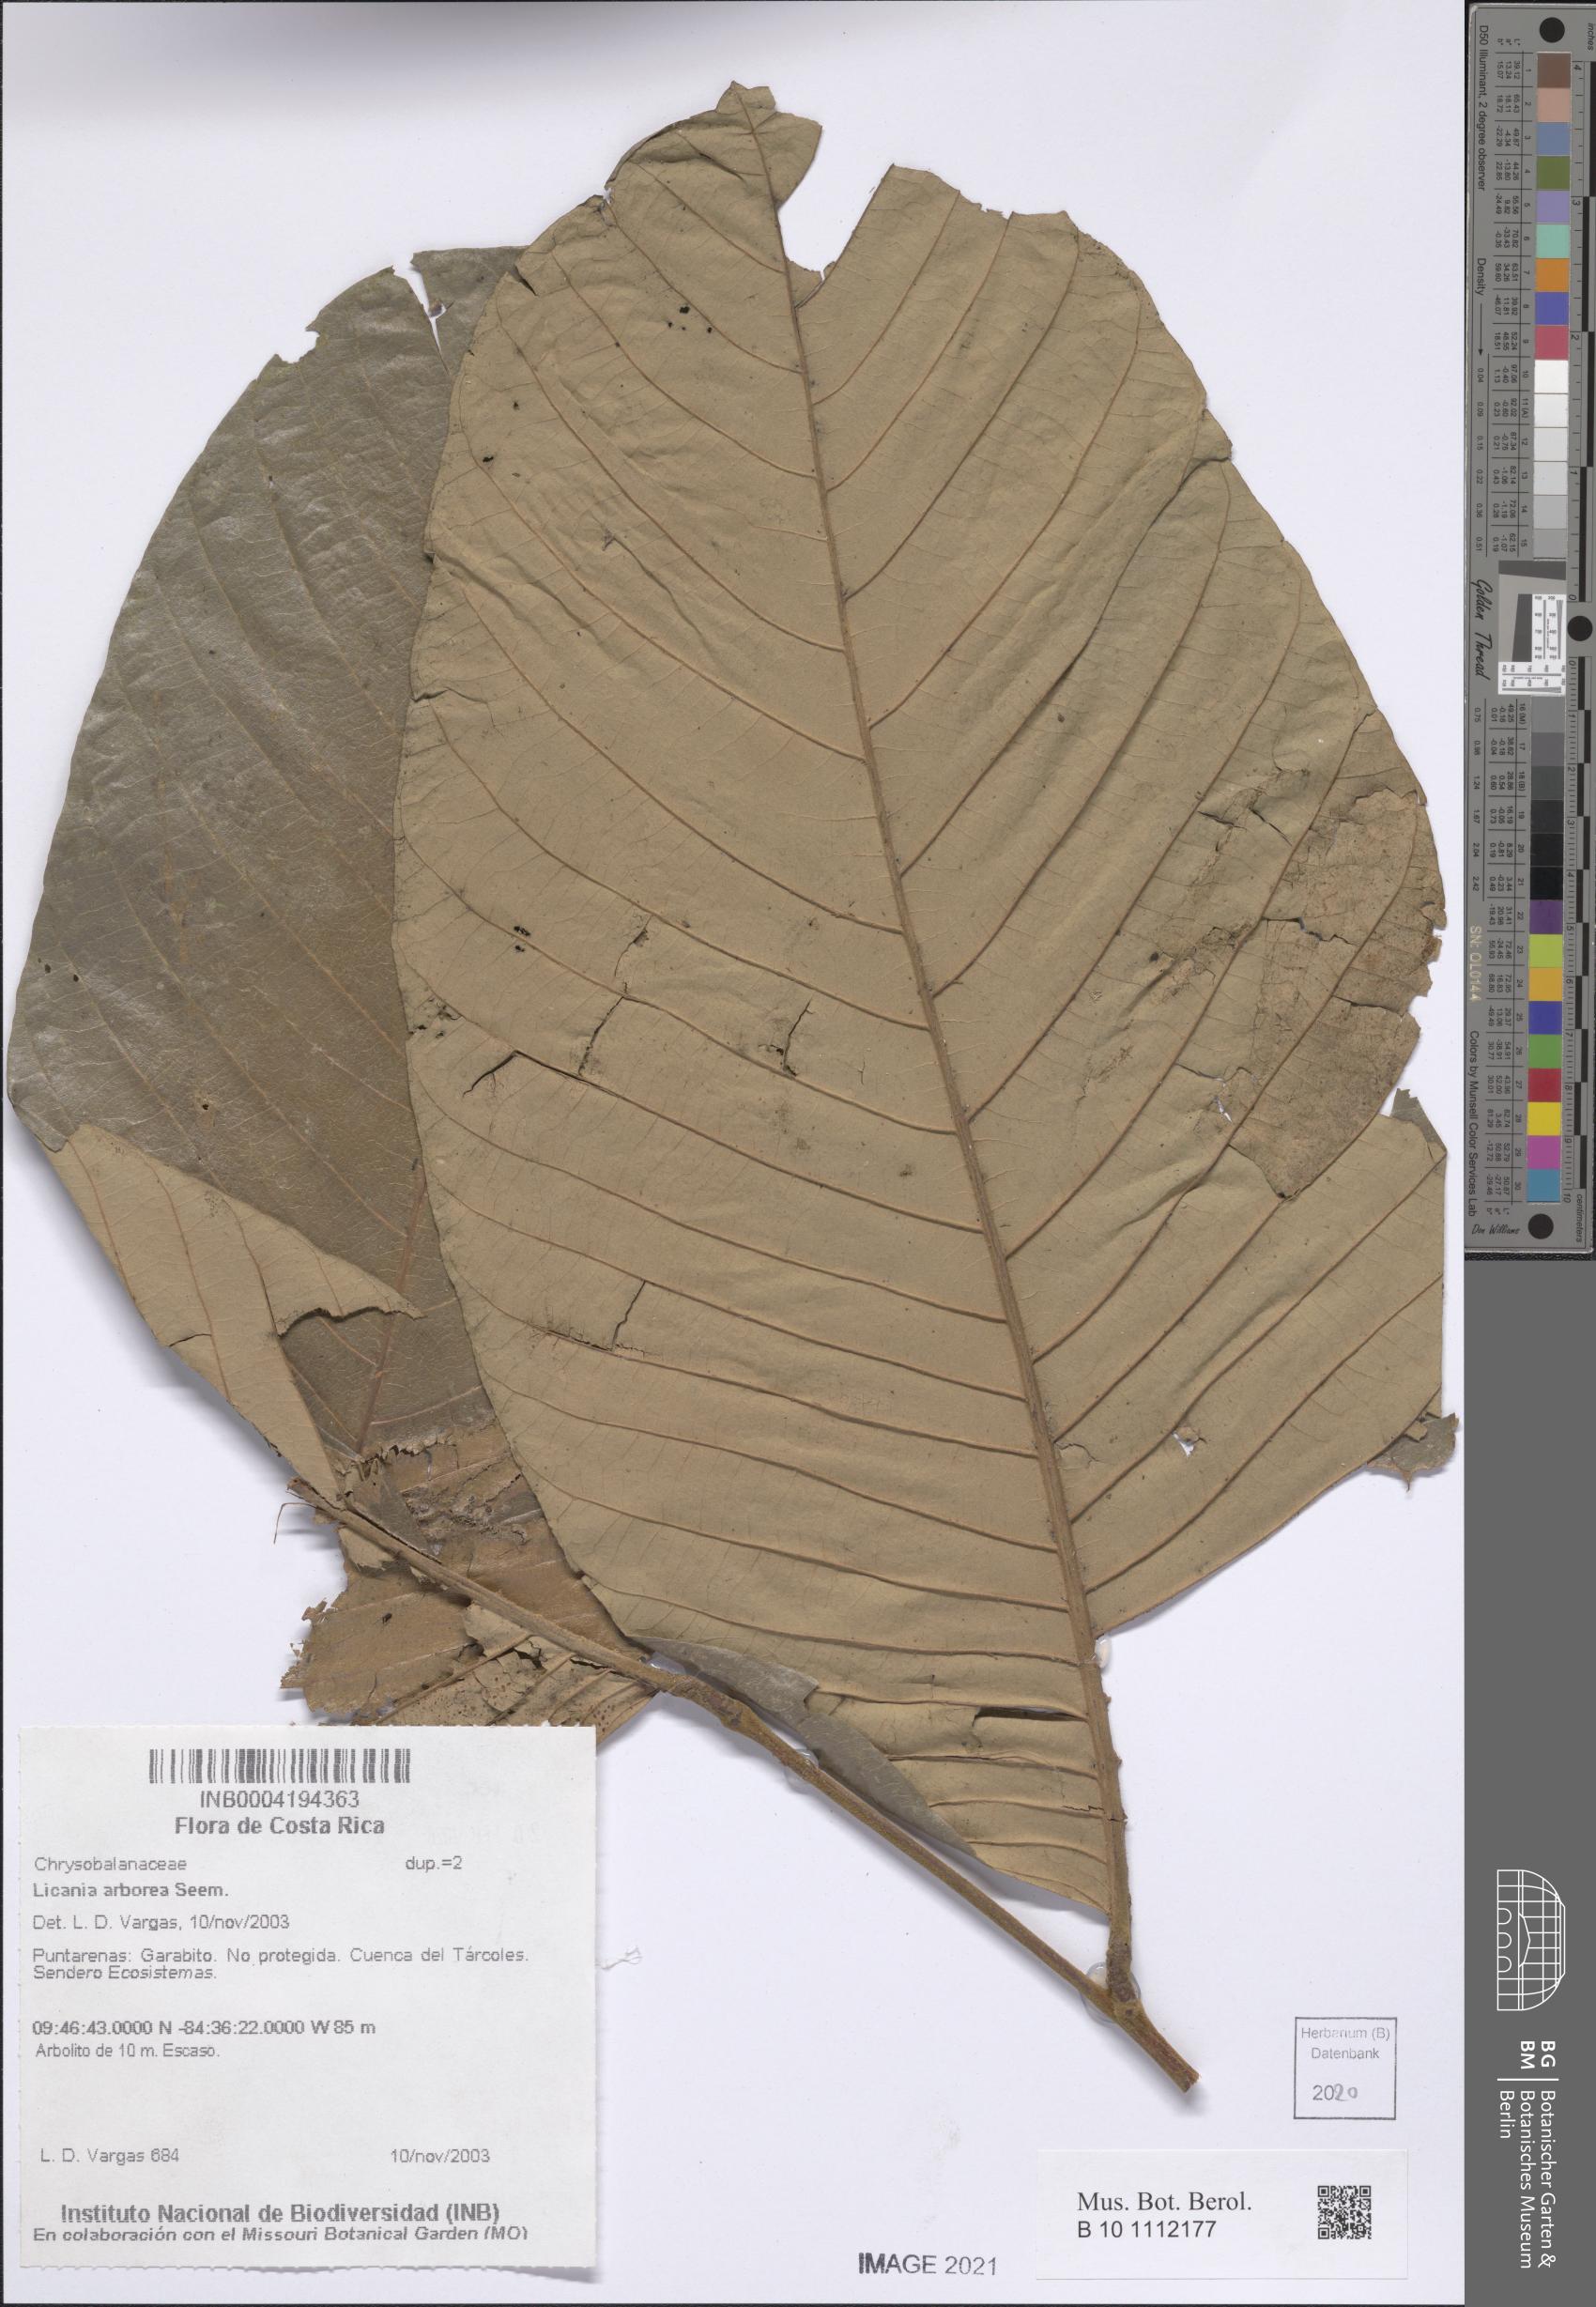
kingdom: Plantae
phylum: Tracheophyta
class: Magnoliopsida
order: Malpighiales
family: Chrysobalanaceae
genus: Microdesmia
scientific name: Microdesmia arborea
